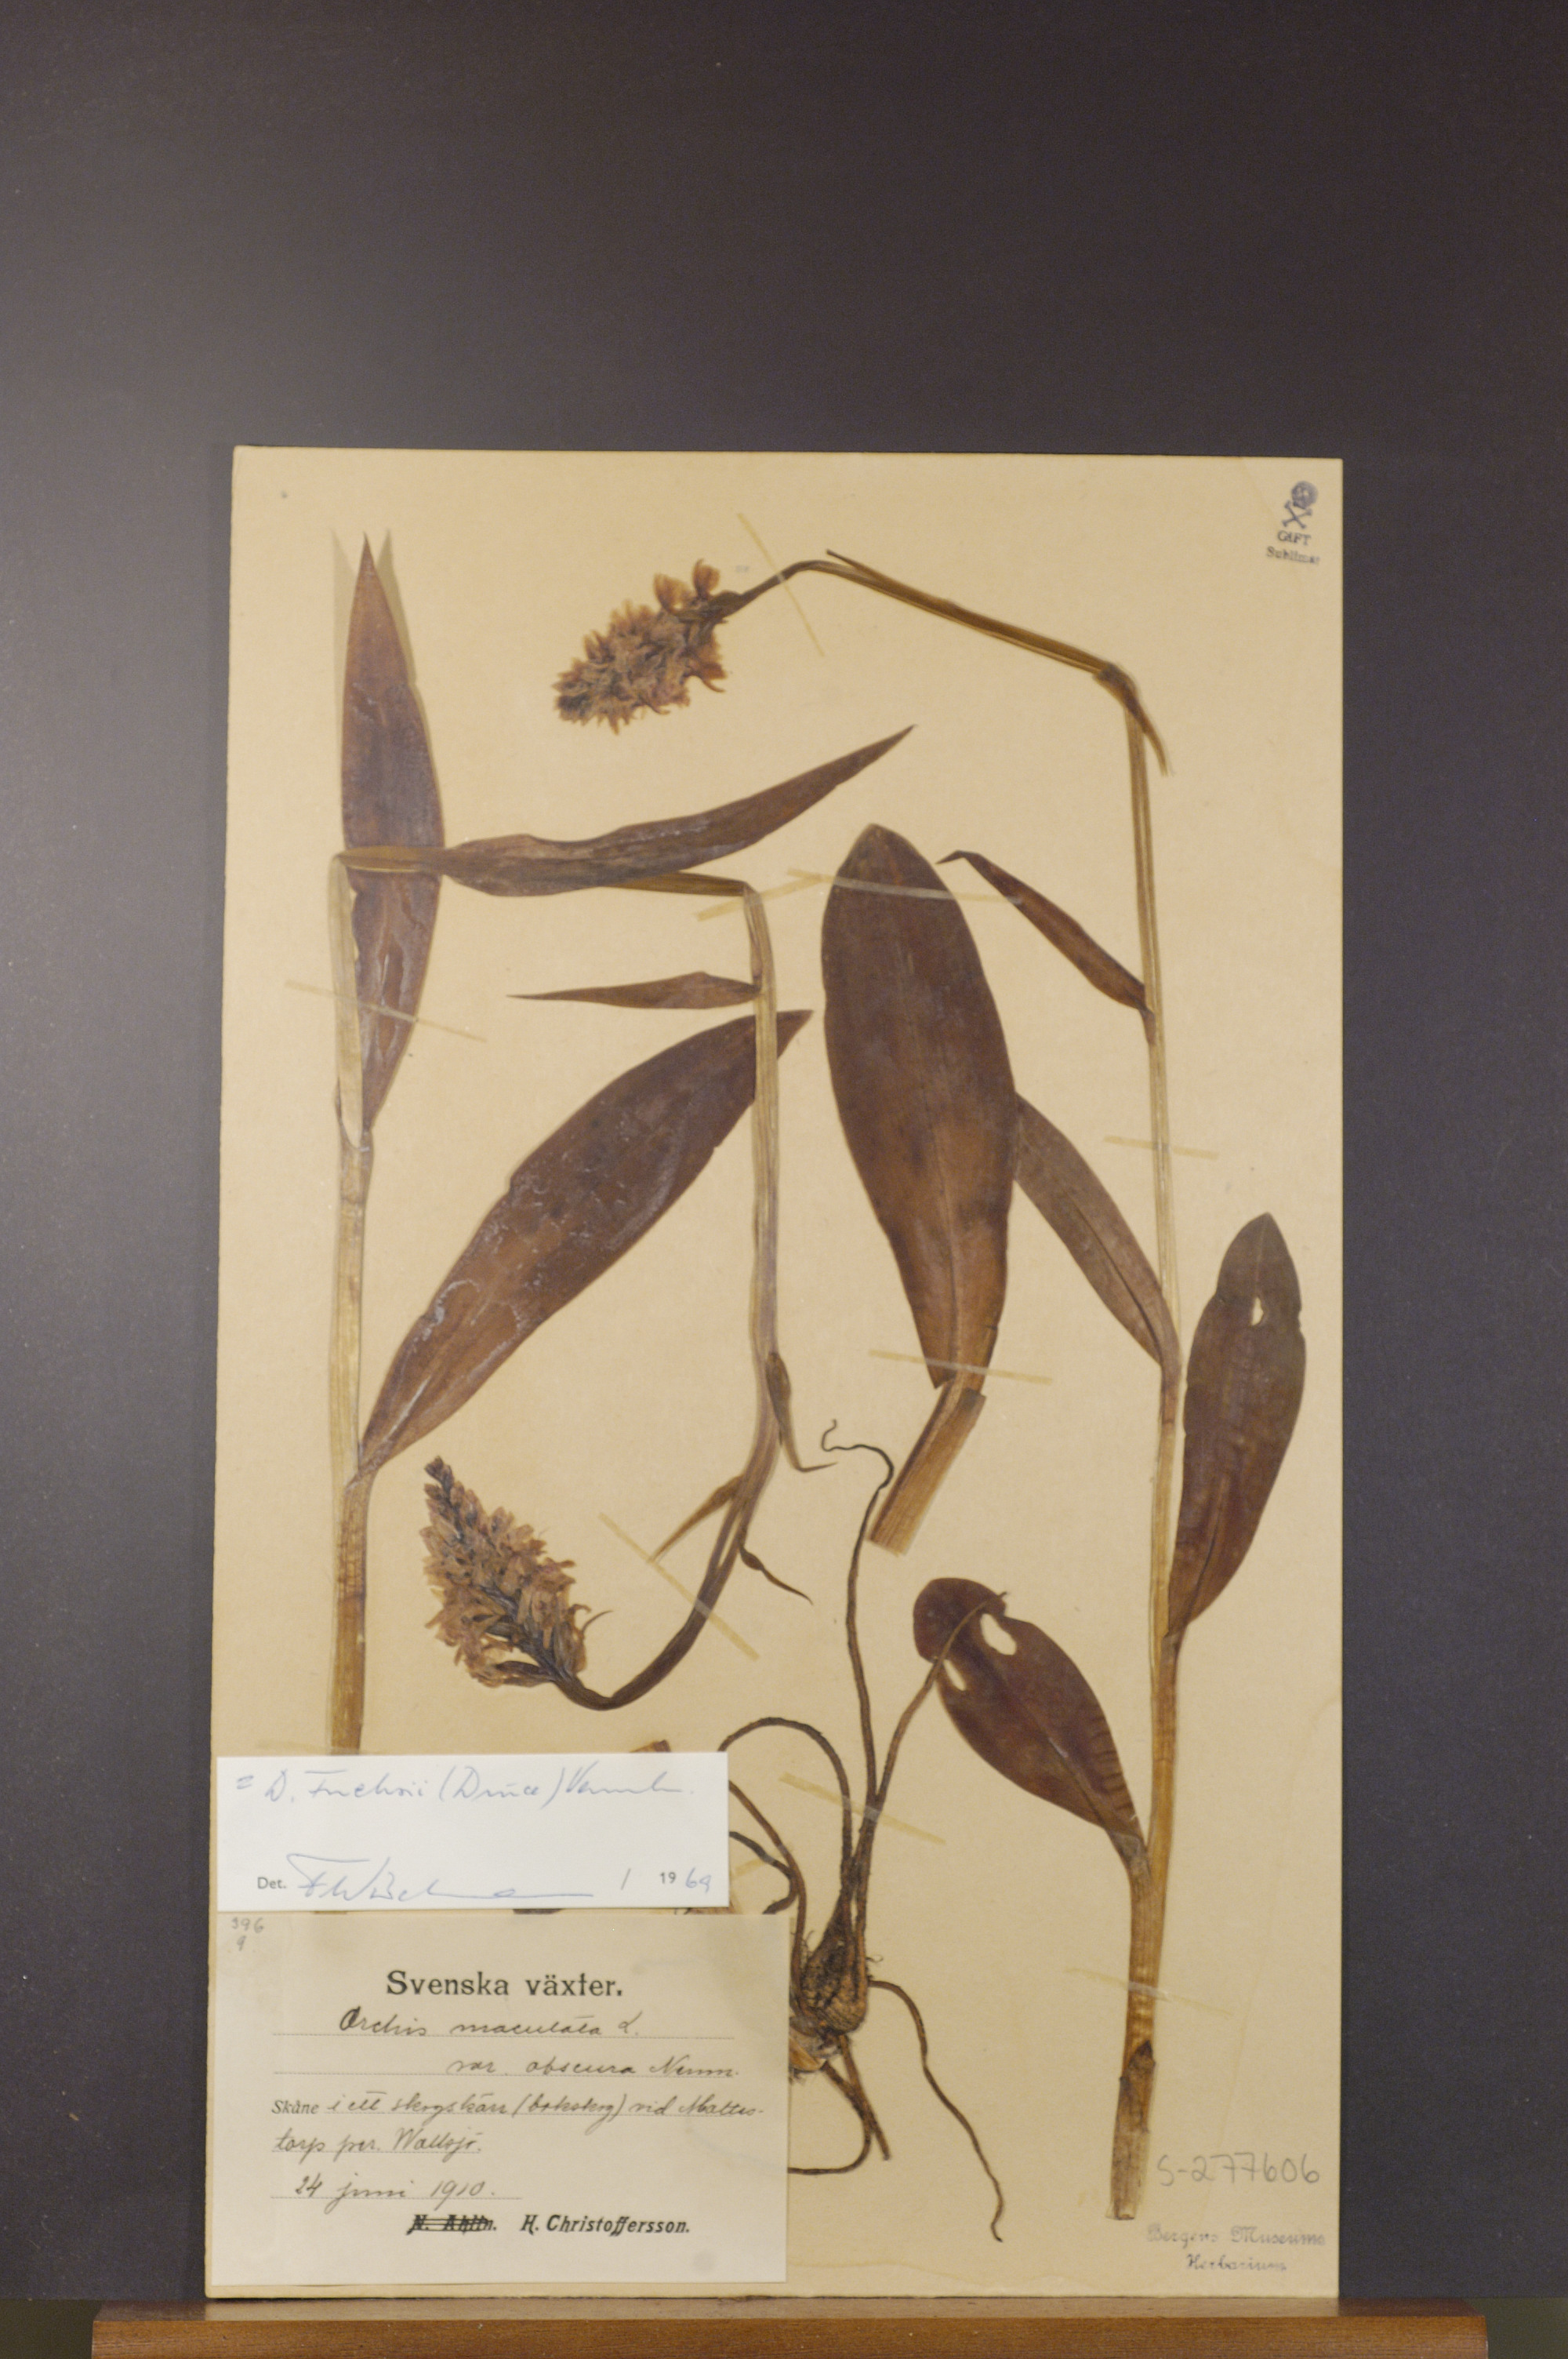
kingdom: Plantae
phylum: Tracheophyta
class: Liliopsida
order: Asparagales
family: Orchidaceae
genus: Dactylorhiza
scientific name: Dactylorhiza maculata
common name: Heath spotted-orchid
